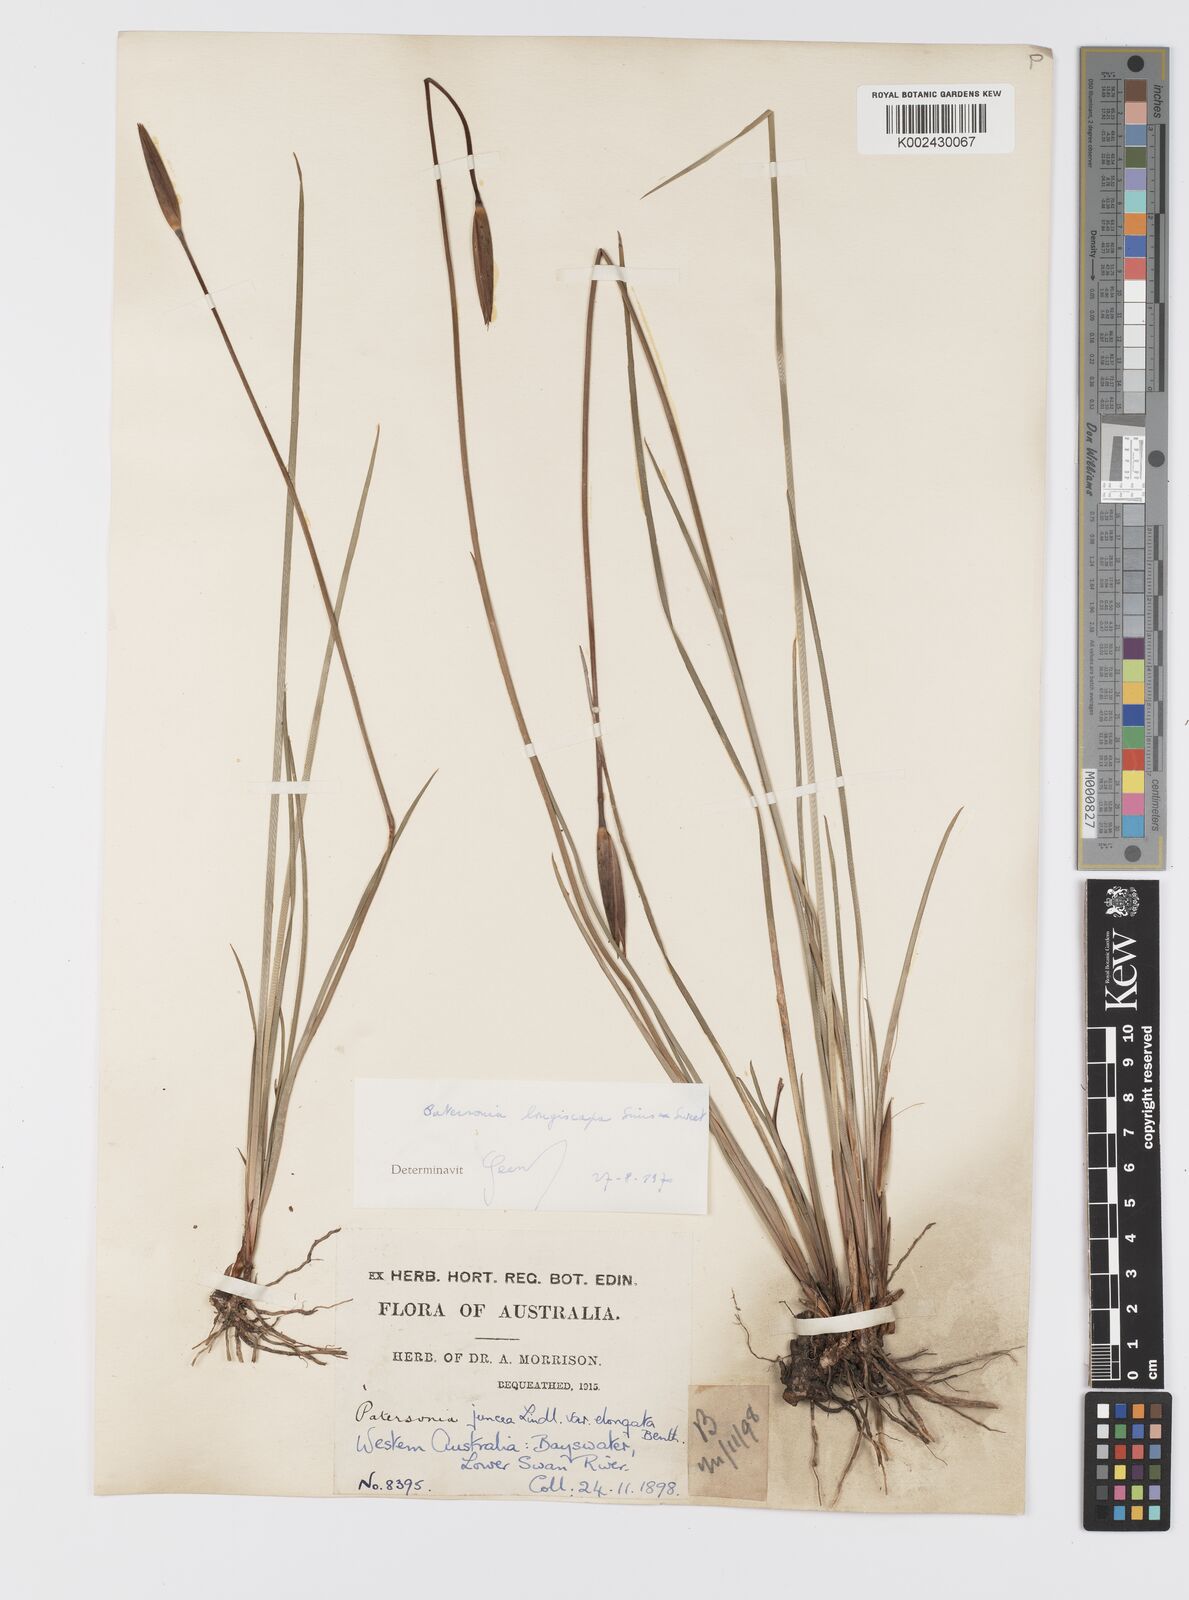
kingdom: Plantae
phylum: Tracheophyta
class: Liliopsida
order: Asparagales
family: Iridaceae
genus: Patersonia
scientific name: Patersonia juncea
